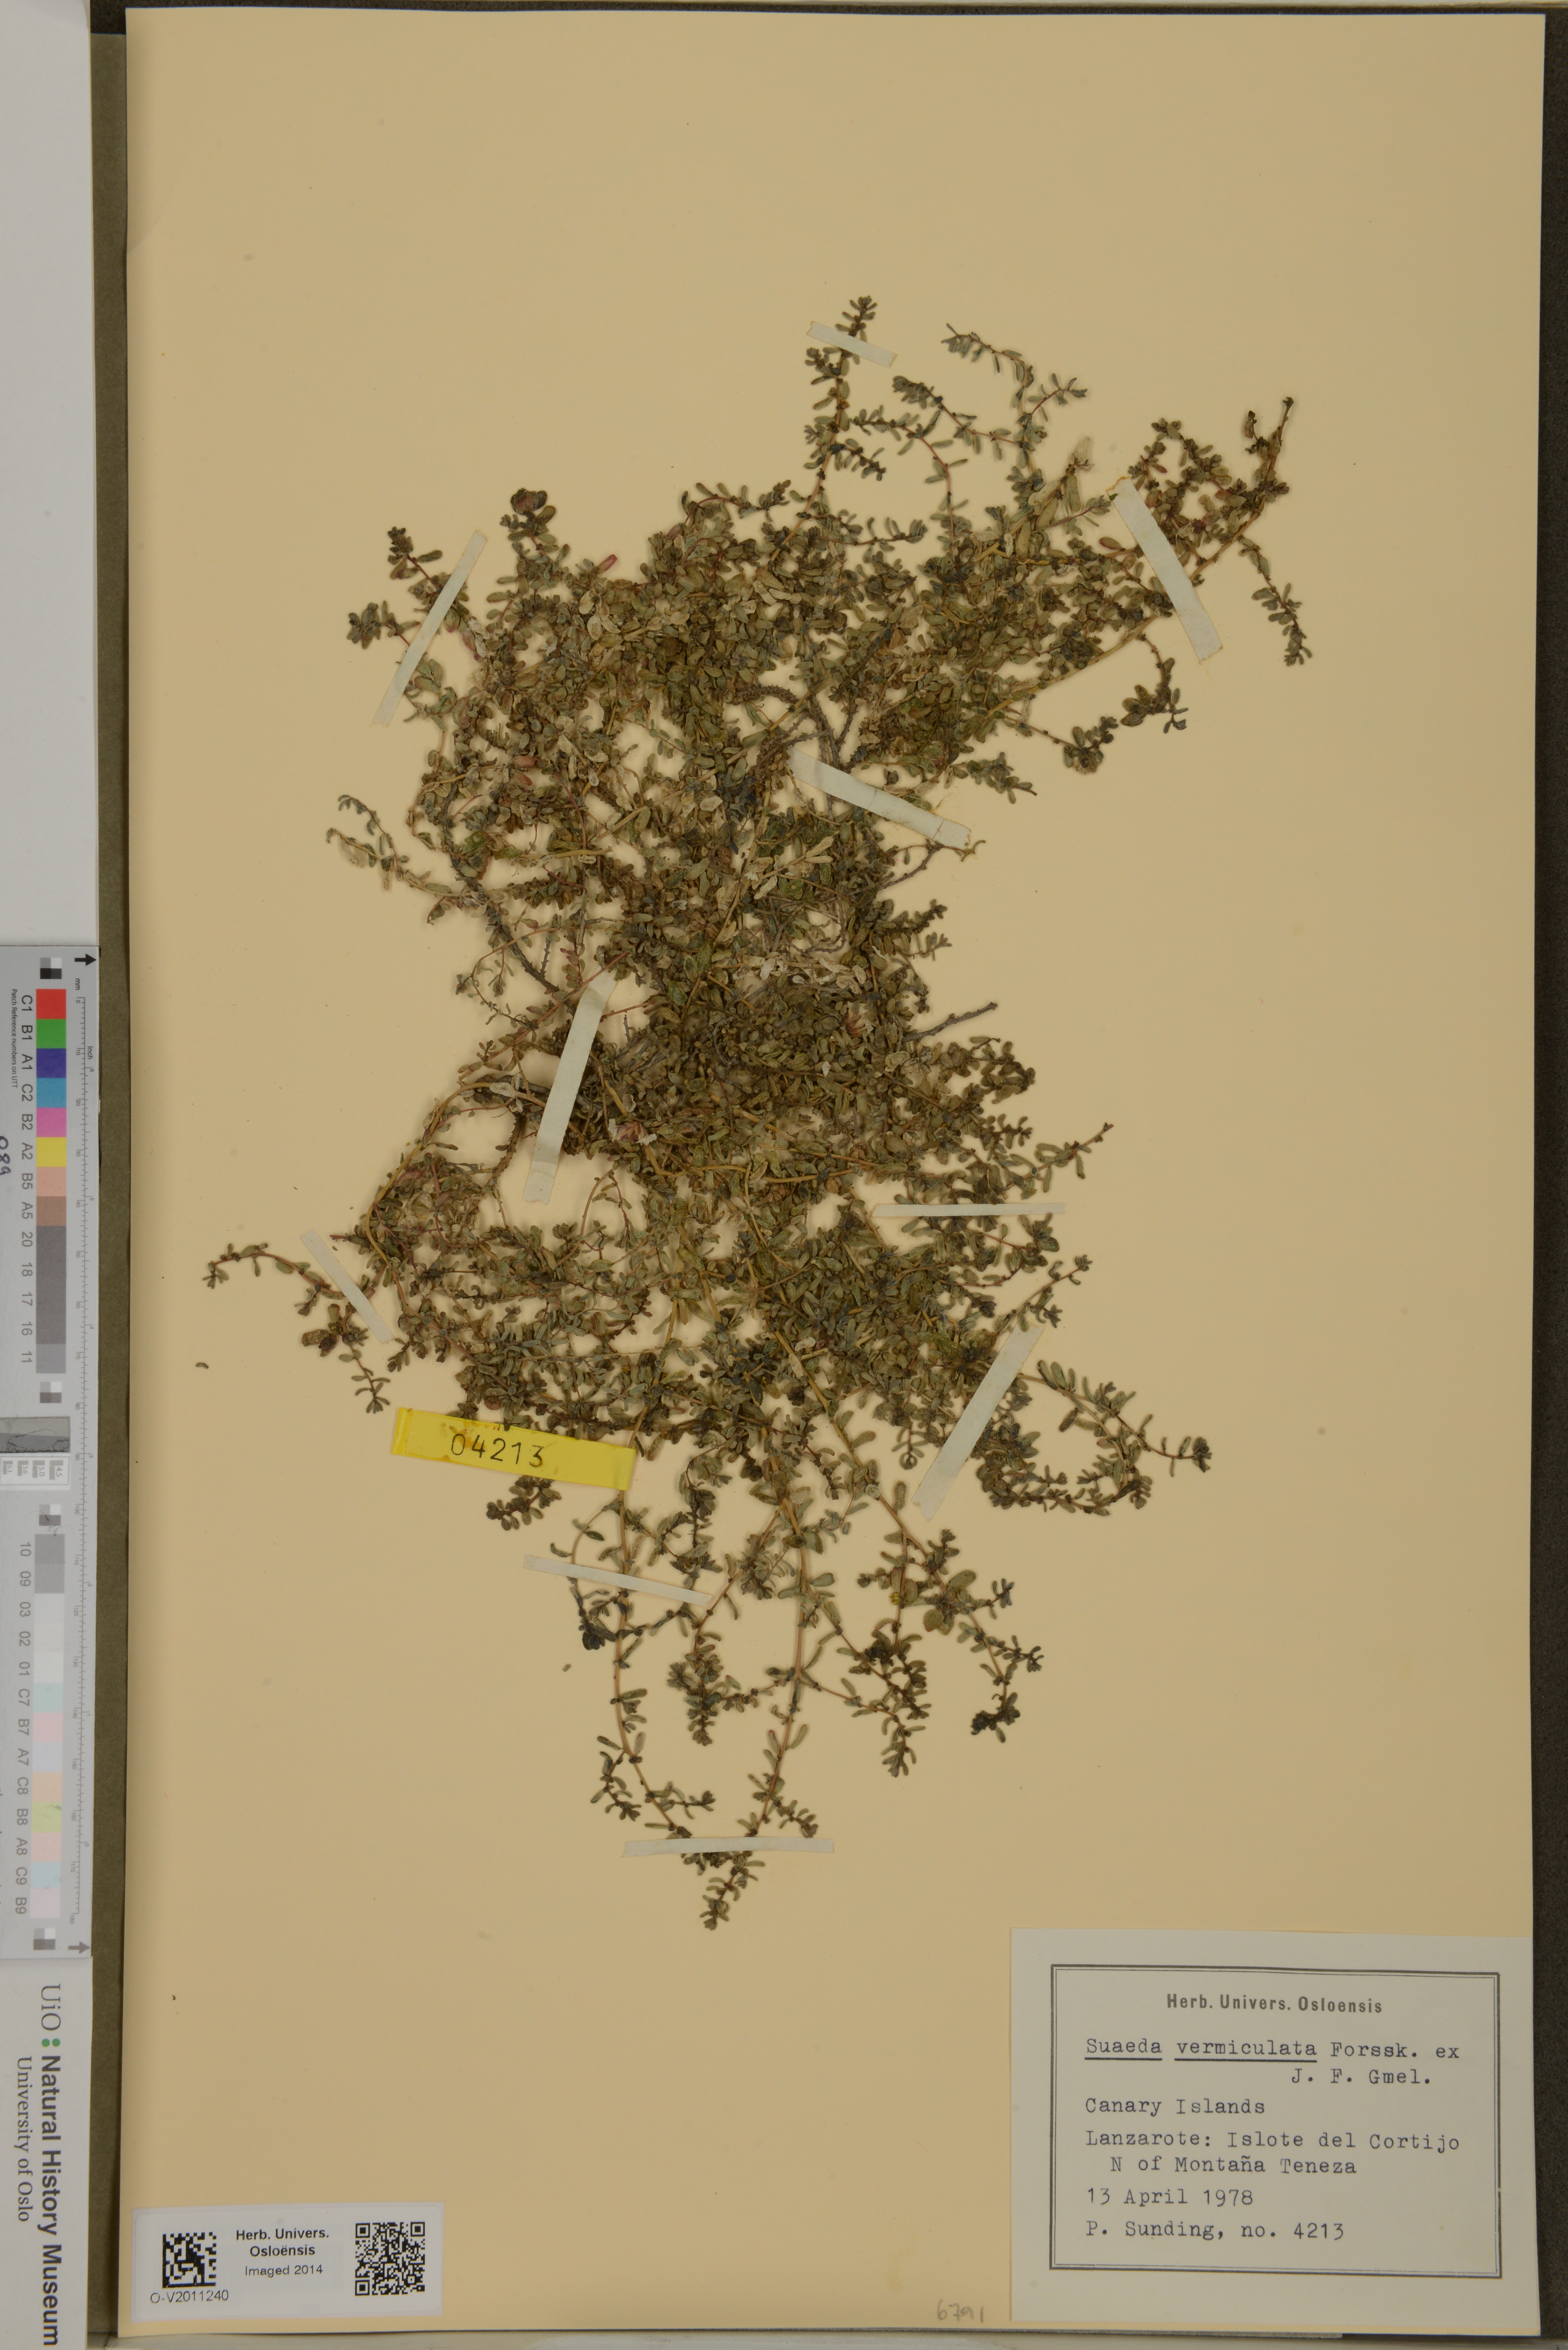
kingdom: Plantae
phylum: Tracheophyta
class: Magnoliopsida
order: Caryophyllales
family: Amaranthaceae
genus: Suaeda
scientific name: Suaeda vermiculata
